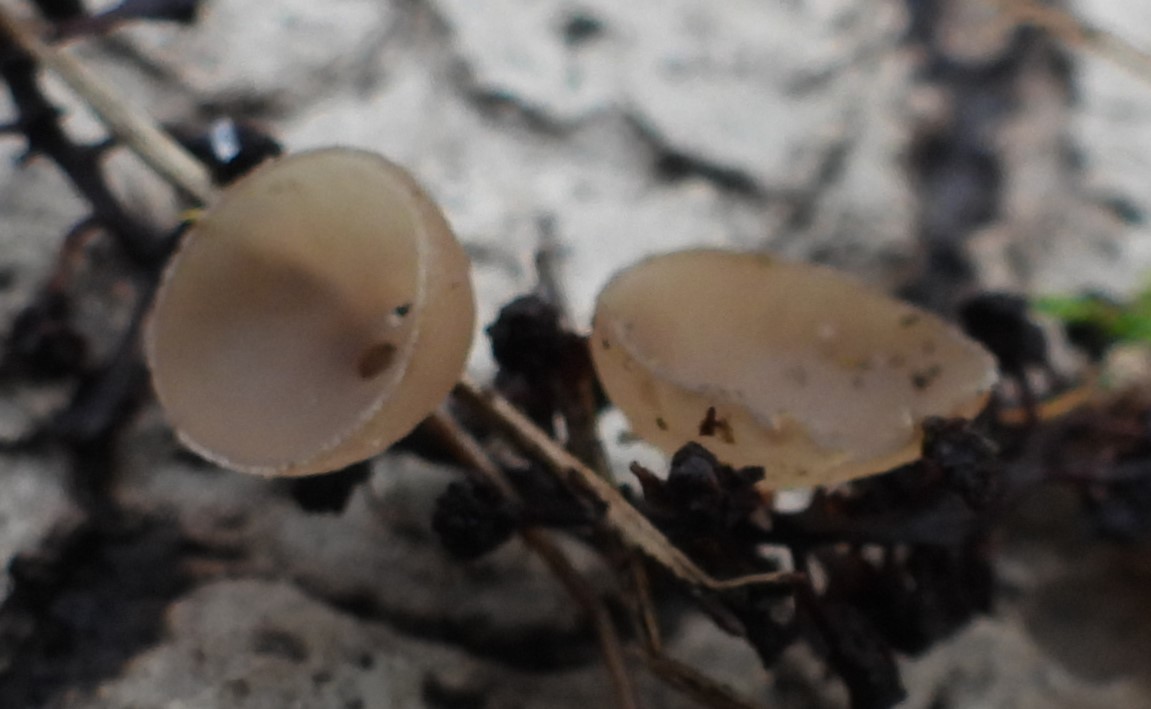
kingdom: Fungi
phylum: Ascomycota
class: Leotiomycetes
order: Helotiales
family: Sclerotiniaceae
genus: Ciboria
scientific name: Ciboria amentacea
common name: ellerakle-knoldskive
